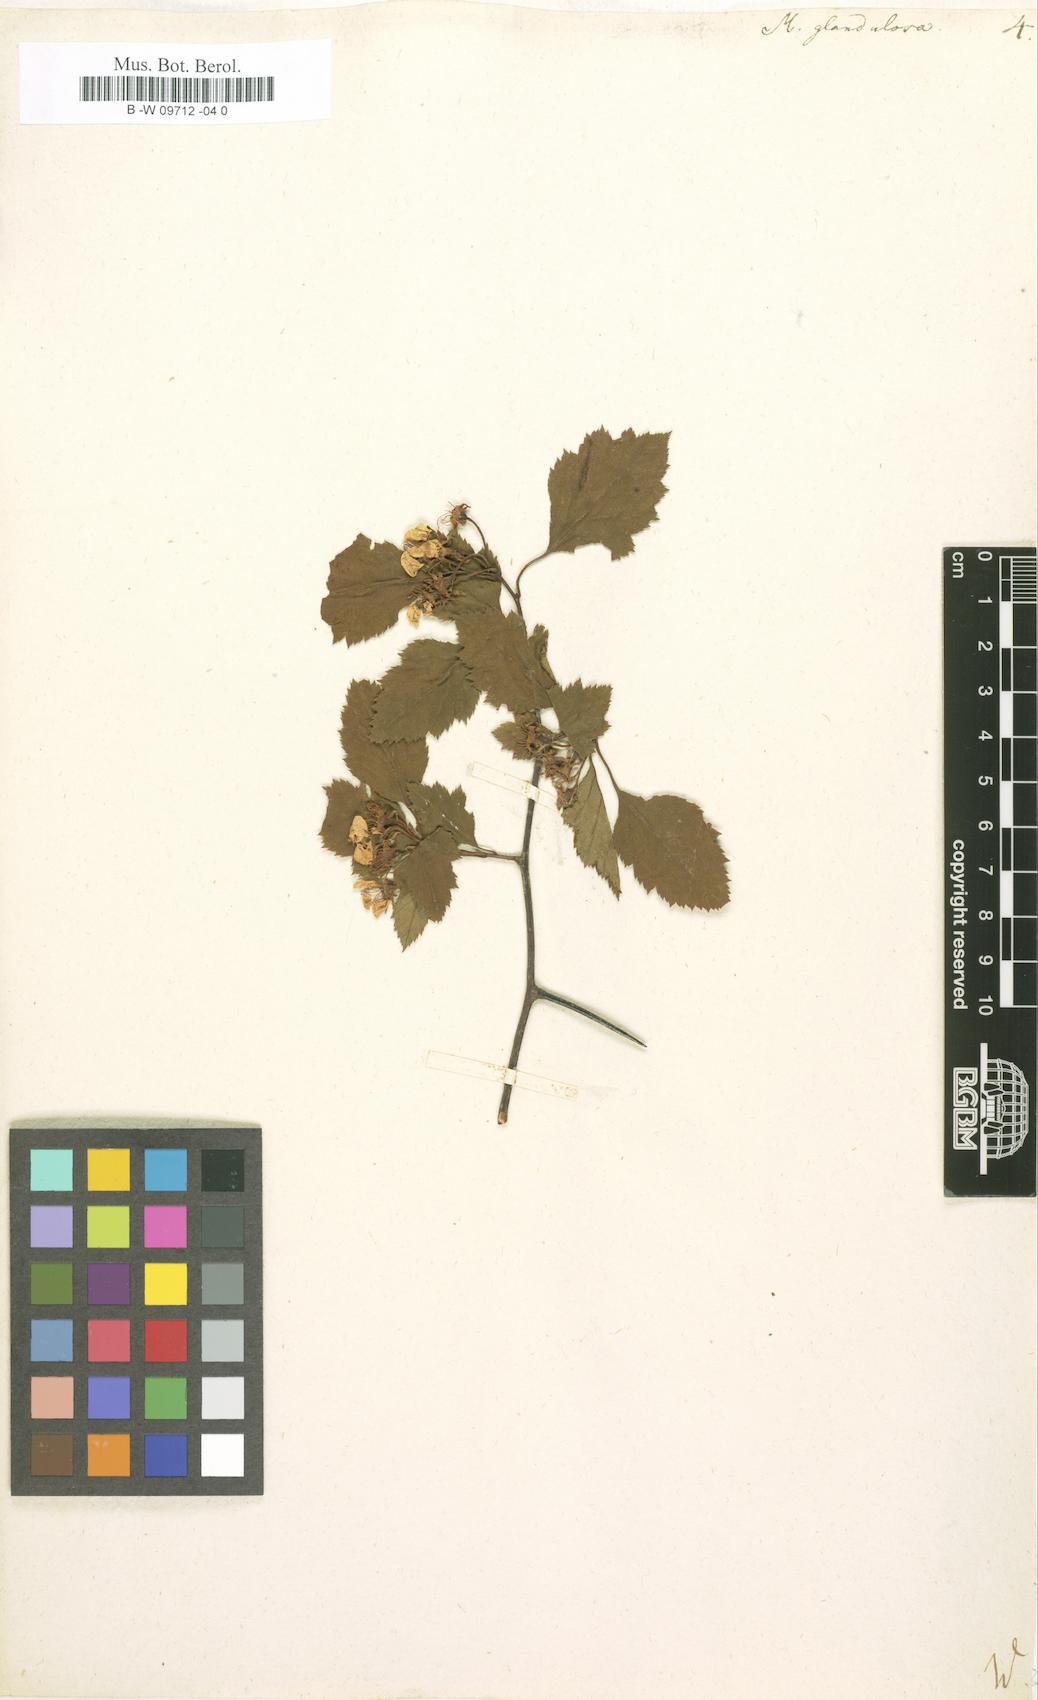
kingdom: Plantae
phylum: Tracheophyta
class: Magnoliopsida
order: Rosales
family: Rosaceae
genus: Crataegus
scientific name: Crataegus
